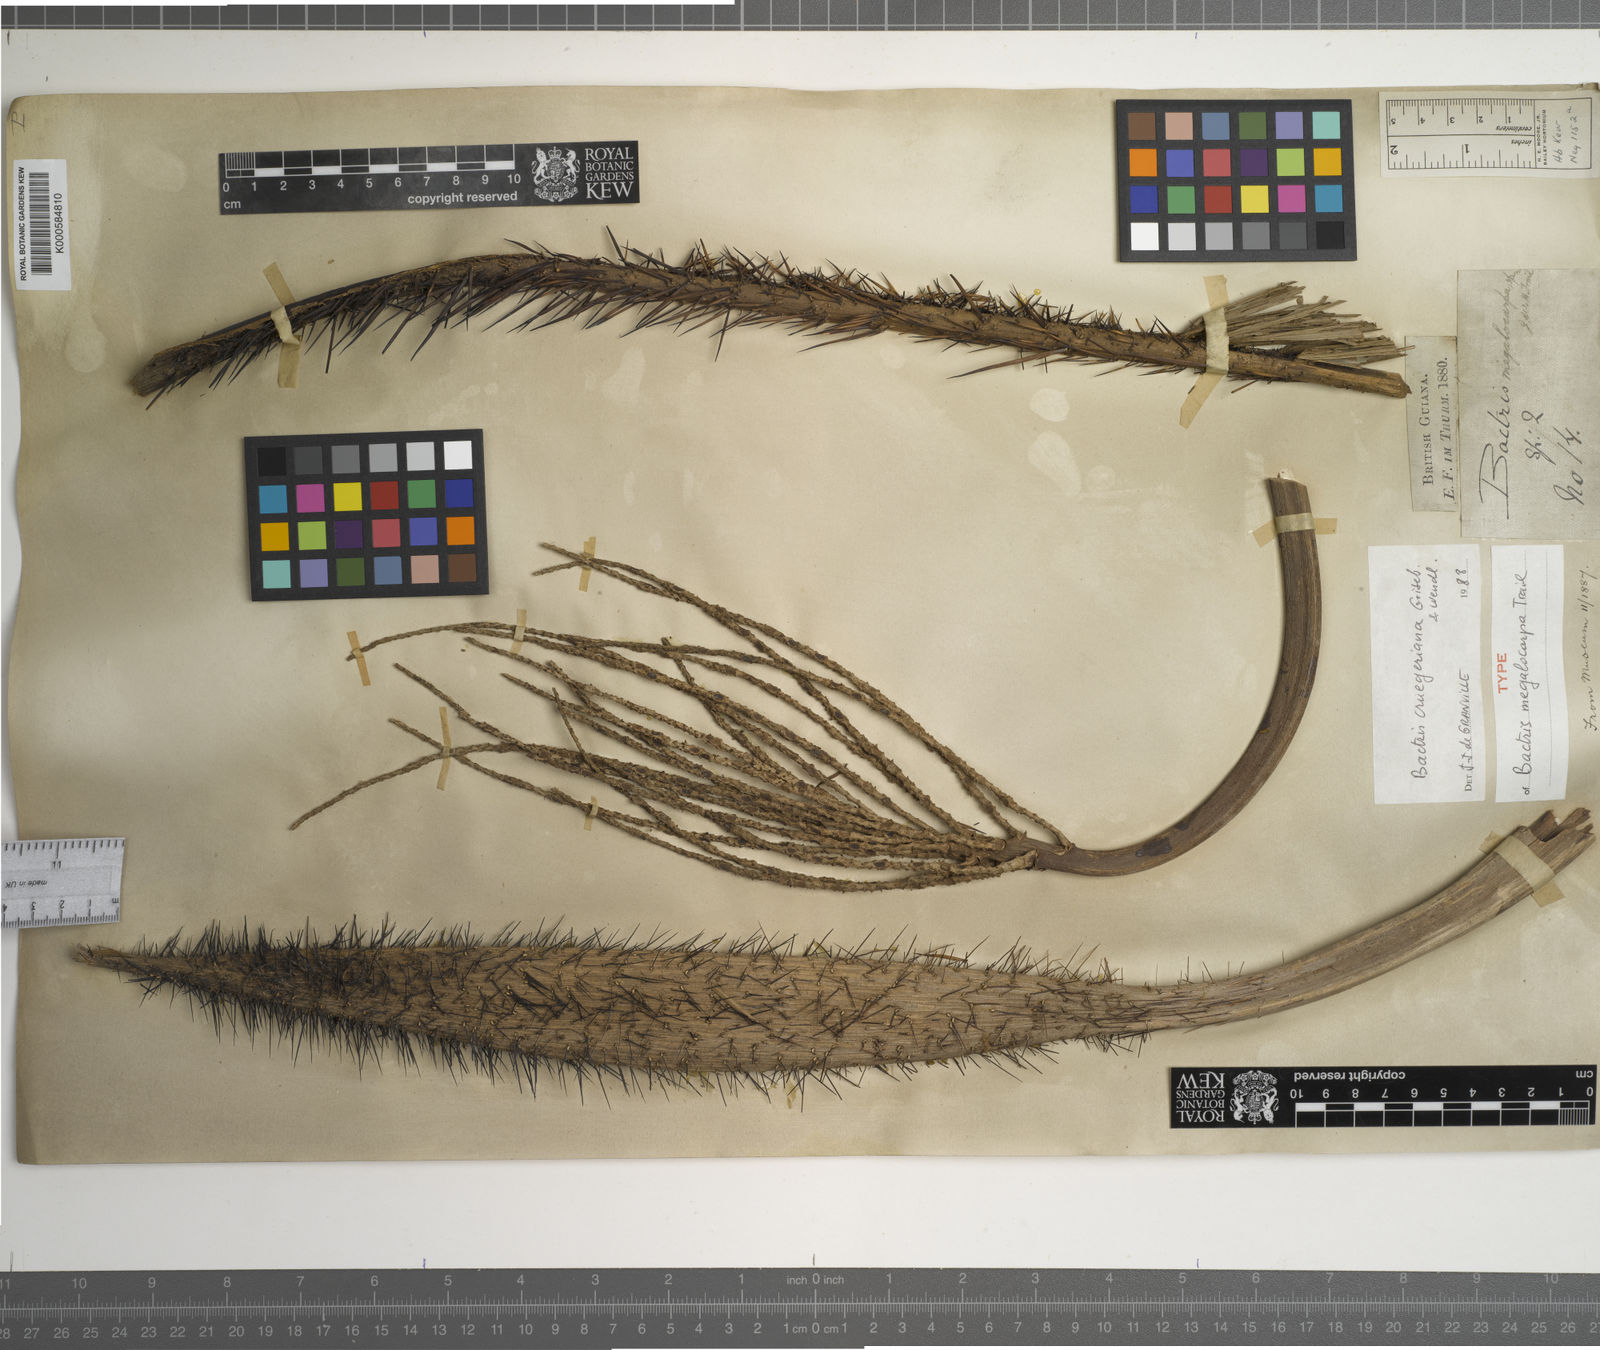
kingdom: Plantae
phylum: Tracheophyta
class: Liliopsida
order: Arecales
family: Arecaceae
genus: Bactris
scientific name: Bactris major
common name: Beach palm
